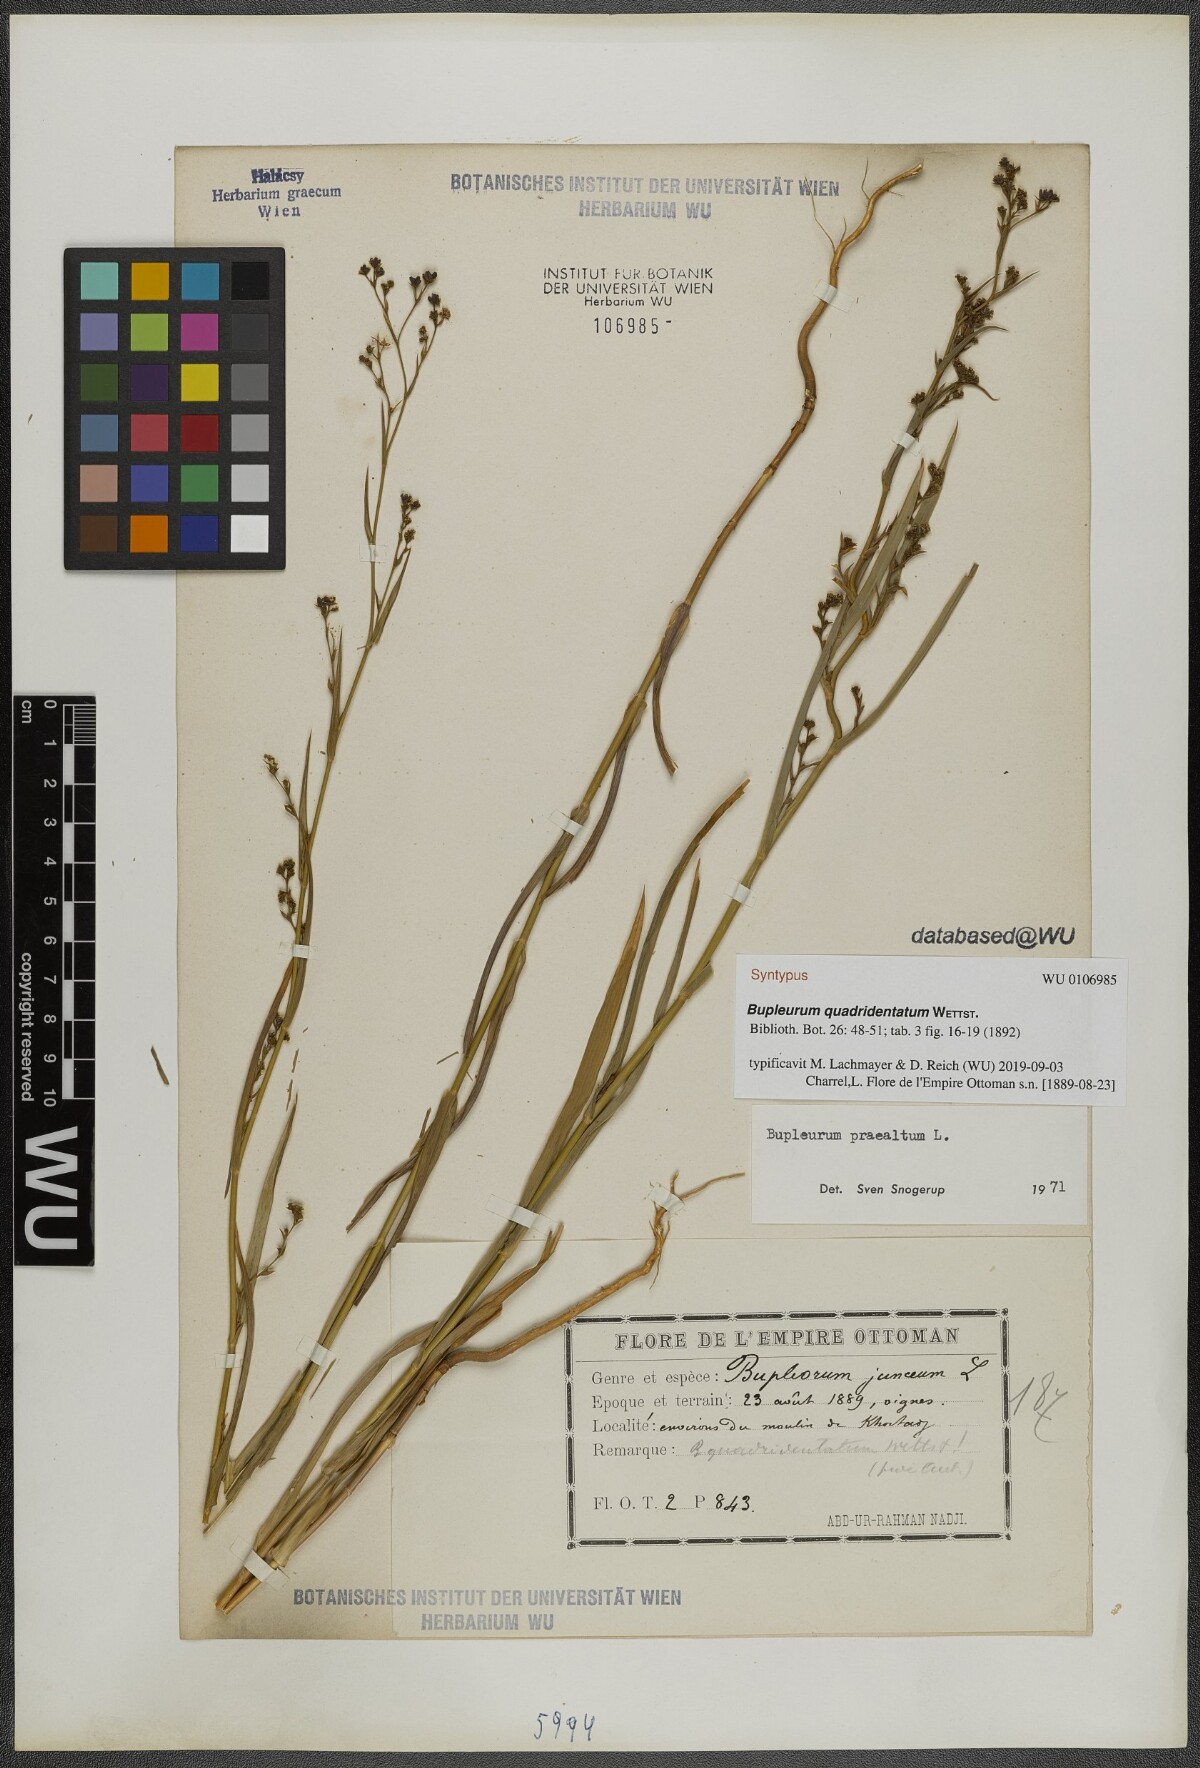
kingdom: Plantae
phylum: Tracheophyta
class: Magnoliopsida
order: Apiales
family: Apiaceae
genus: Bupleurum
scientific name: Bupleurum praealtum
